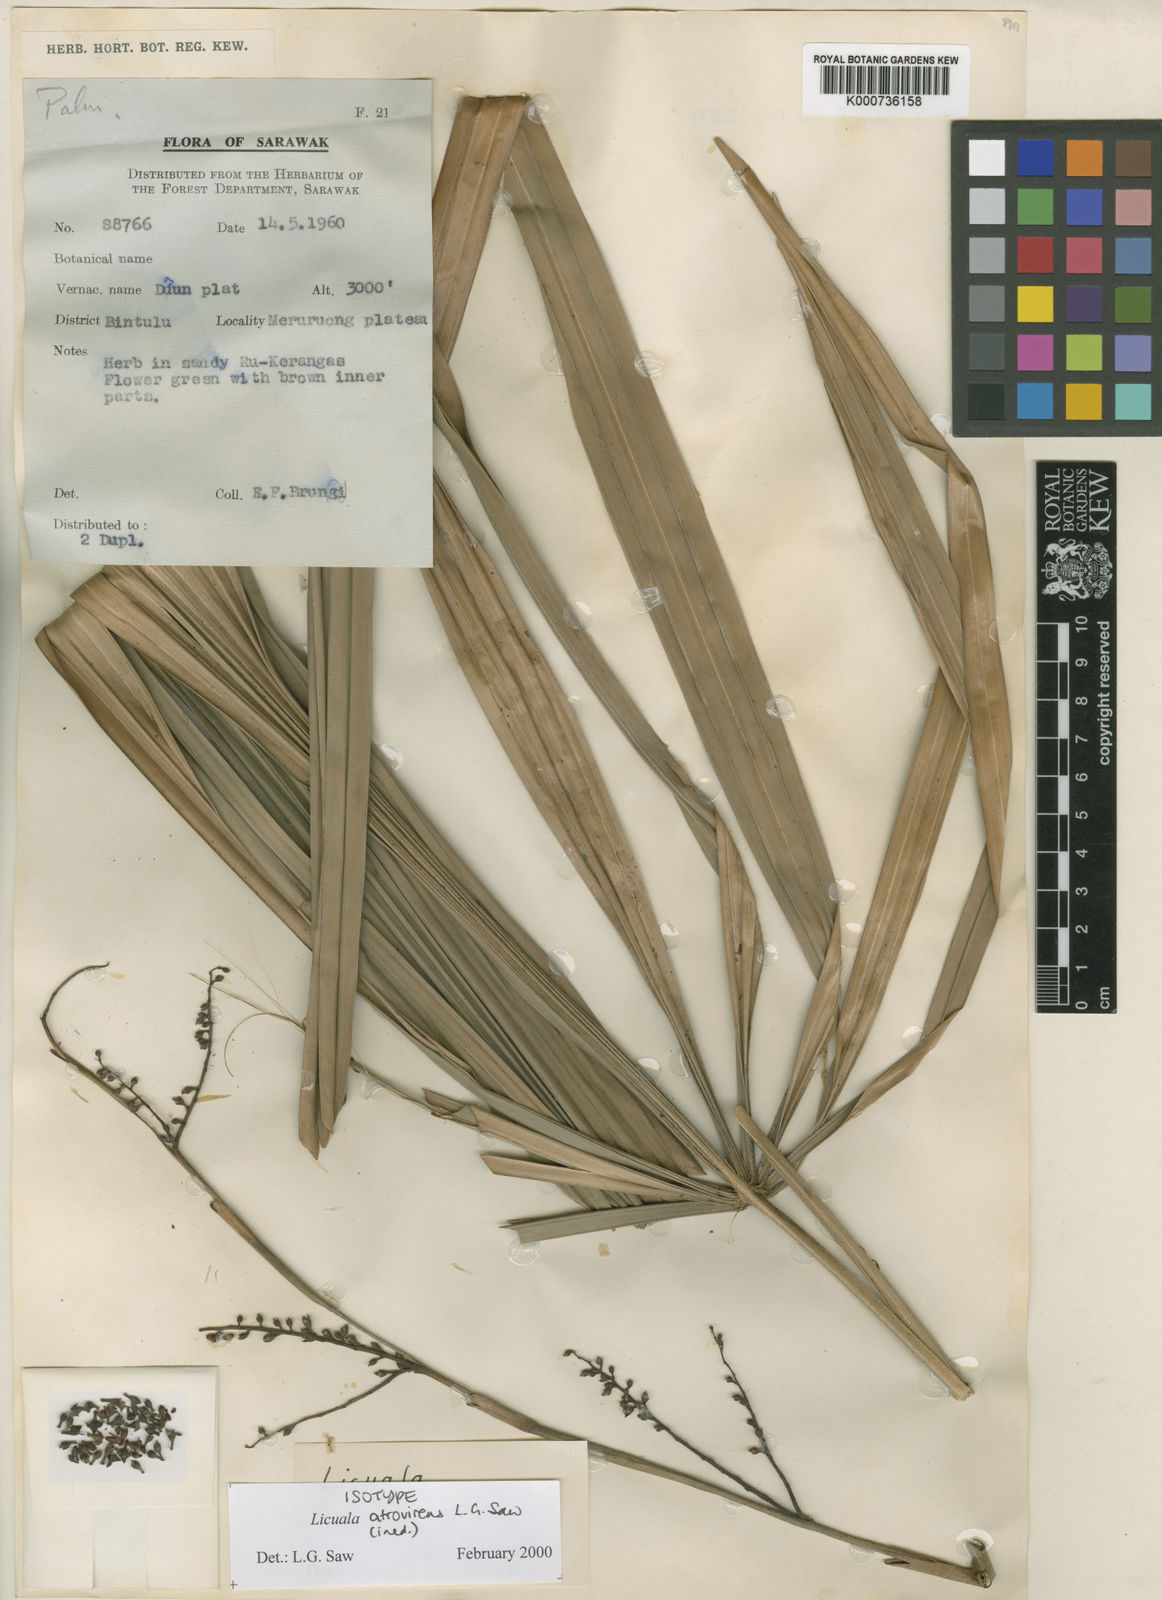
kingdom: Plantae
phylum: Tracheophyta
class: Liliopsida
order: Arecales
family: Arecaceae
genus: Licuala
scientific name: Licuala atrovirens
